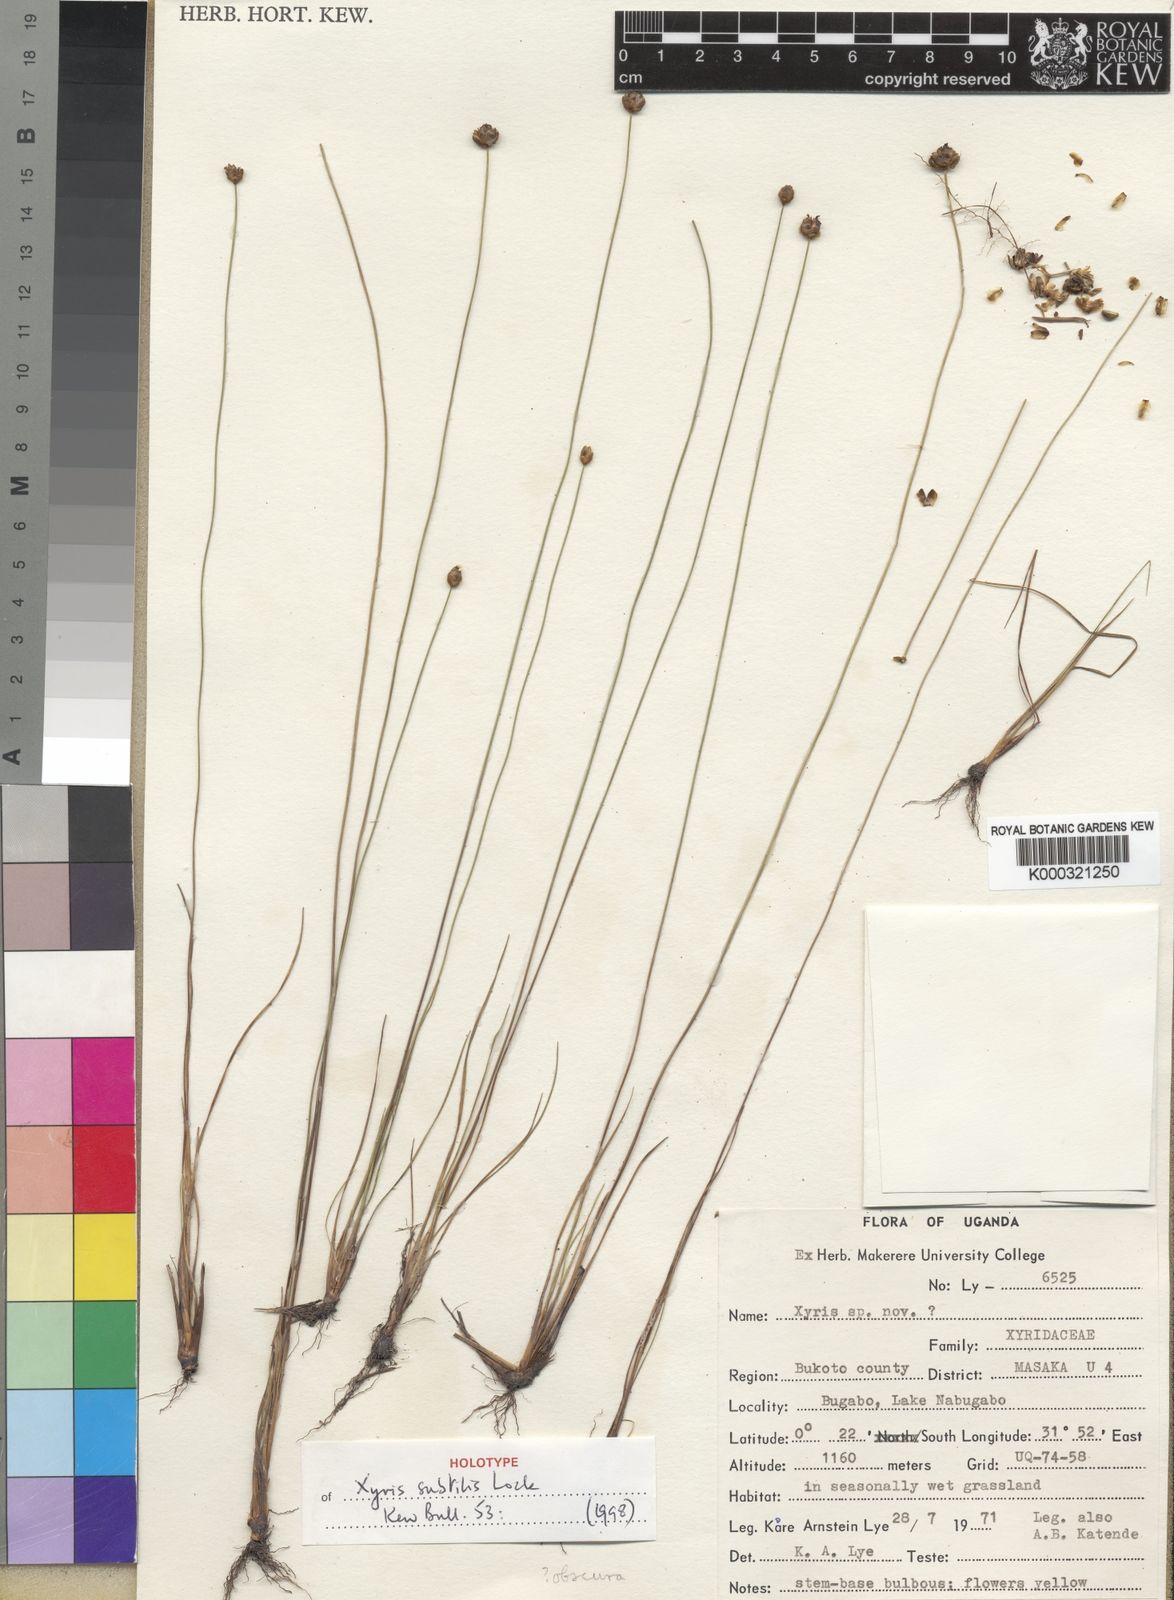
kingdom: Plantae
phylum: Tracheophyta
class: Liliopsida
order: Poales
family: Xyridaceae
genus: Xyris
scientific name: Xyris subtilis
